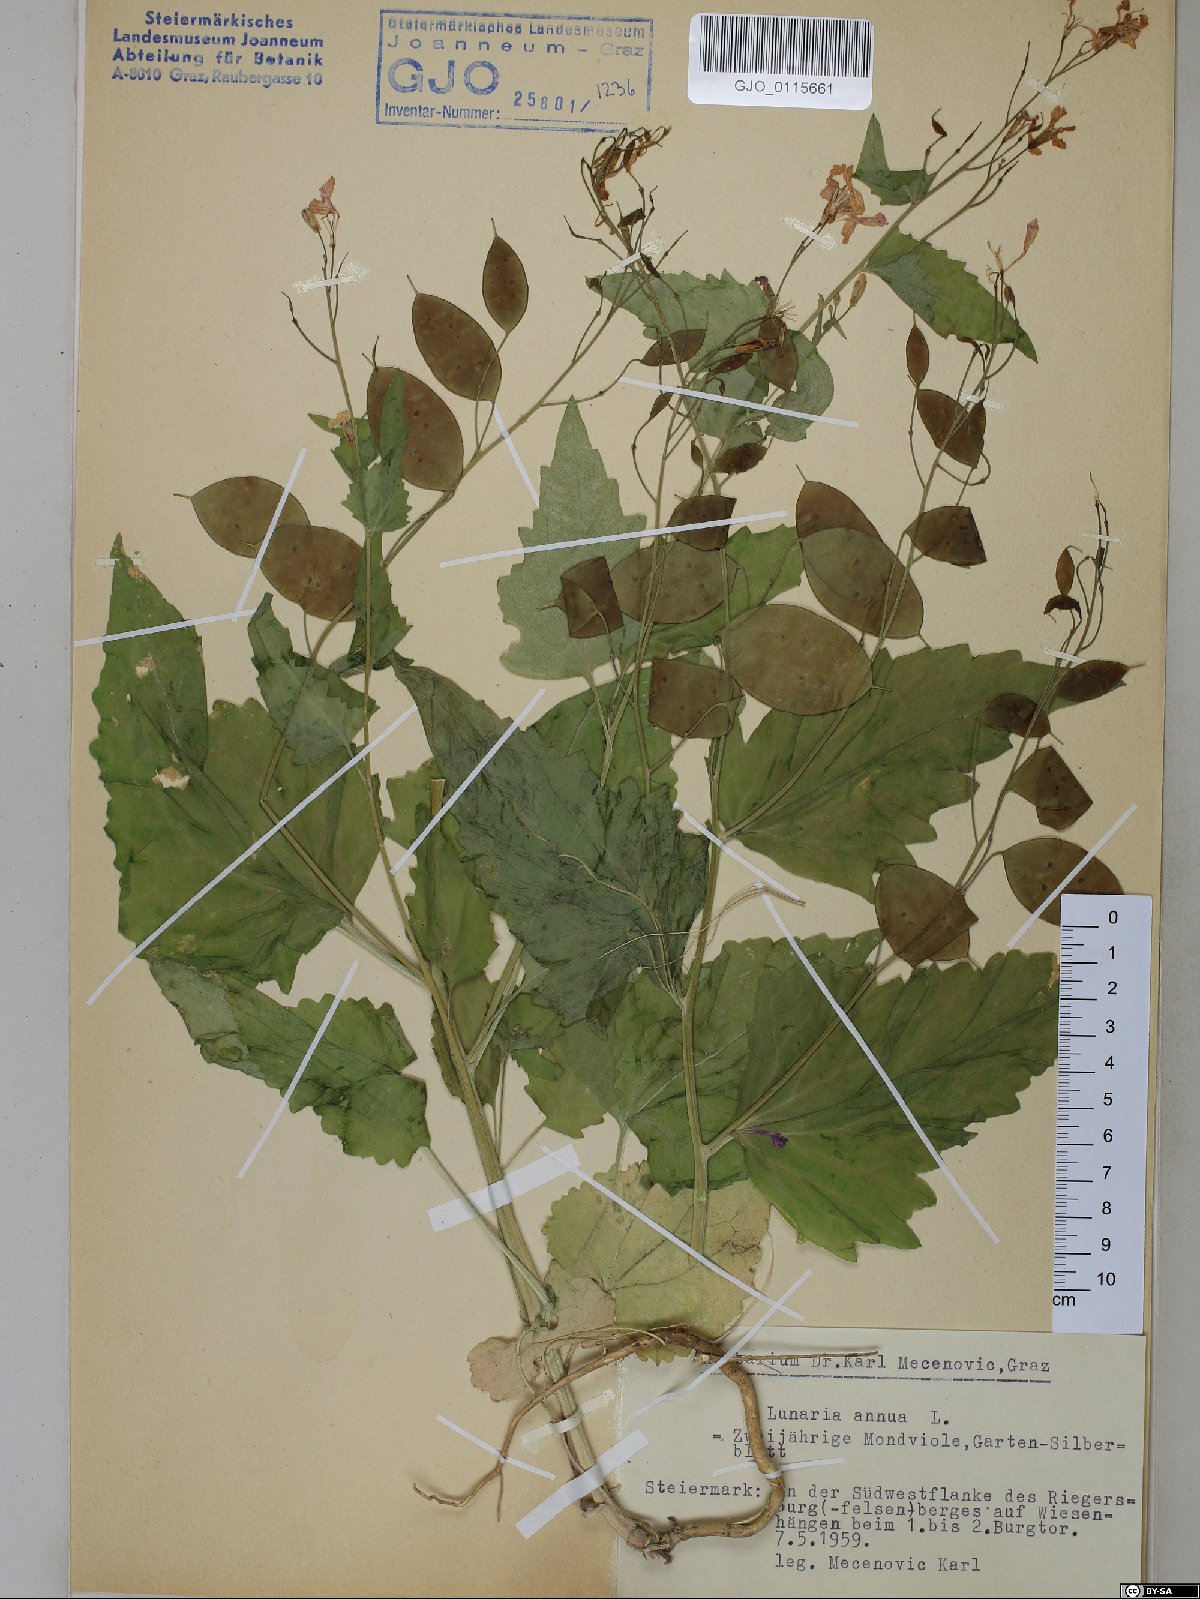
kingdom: Plantae
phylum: Tracheophyta
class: Magnoliopsida
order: Brassicales
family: Brassicaceae
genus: Lunaria
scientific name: Lunaria annua
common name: Honesty
